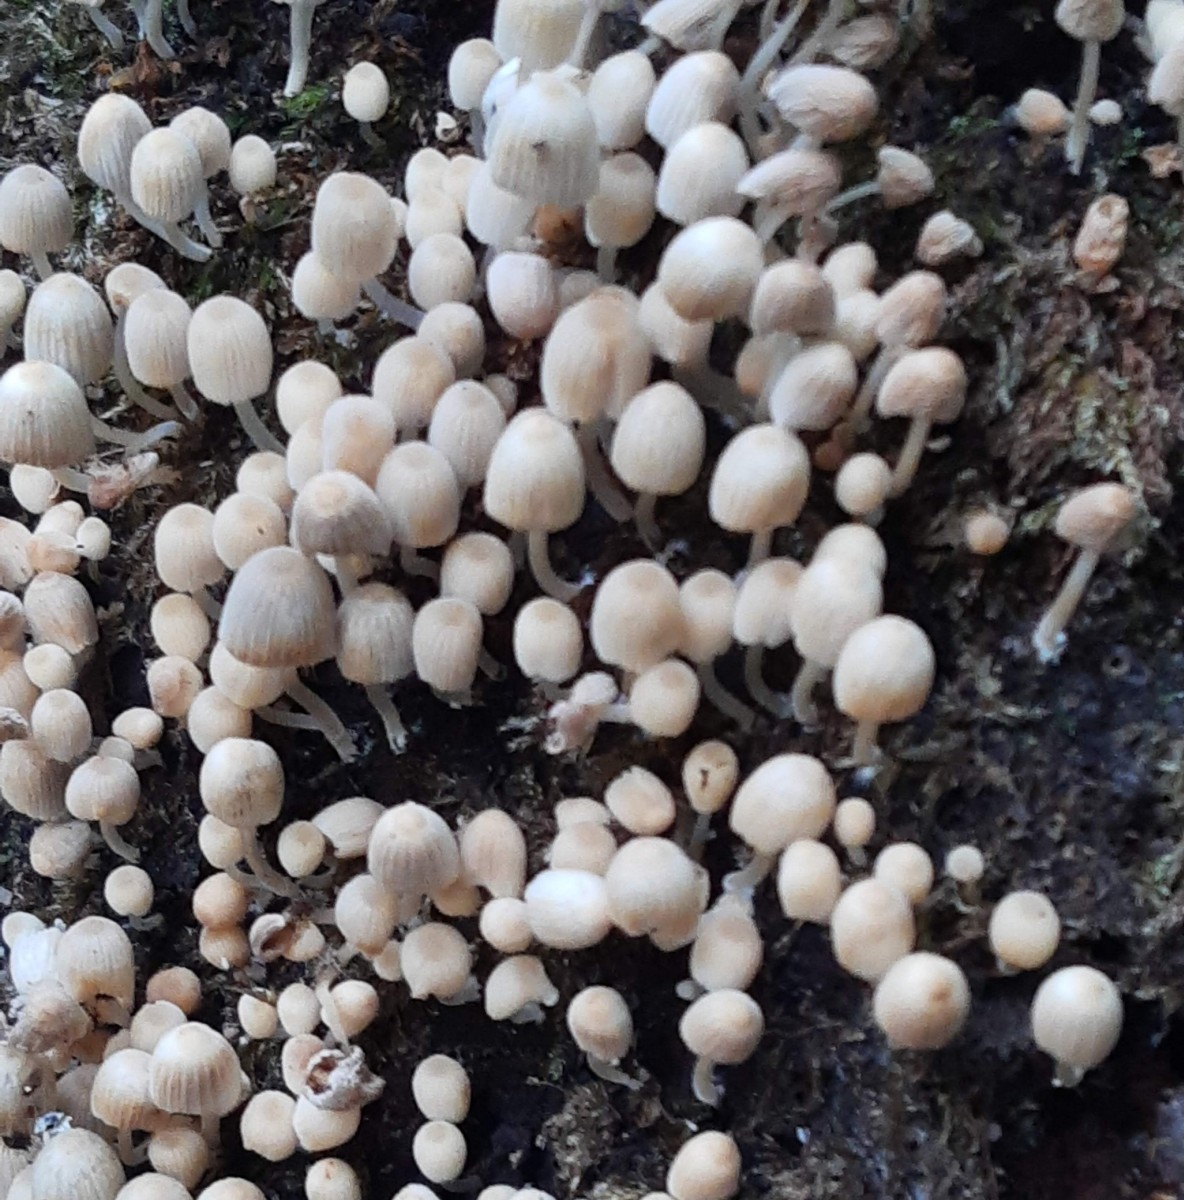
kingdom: Fungi
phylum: Basidiomycota
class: Agaricomycetes
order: Agaricales
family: Psathyrellaceae
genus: Coprinellus
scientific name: Coprinellus disseminatus
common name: bredsået blækhat
